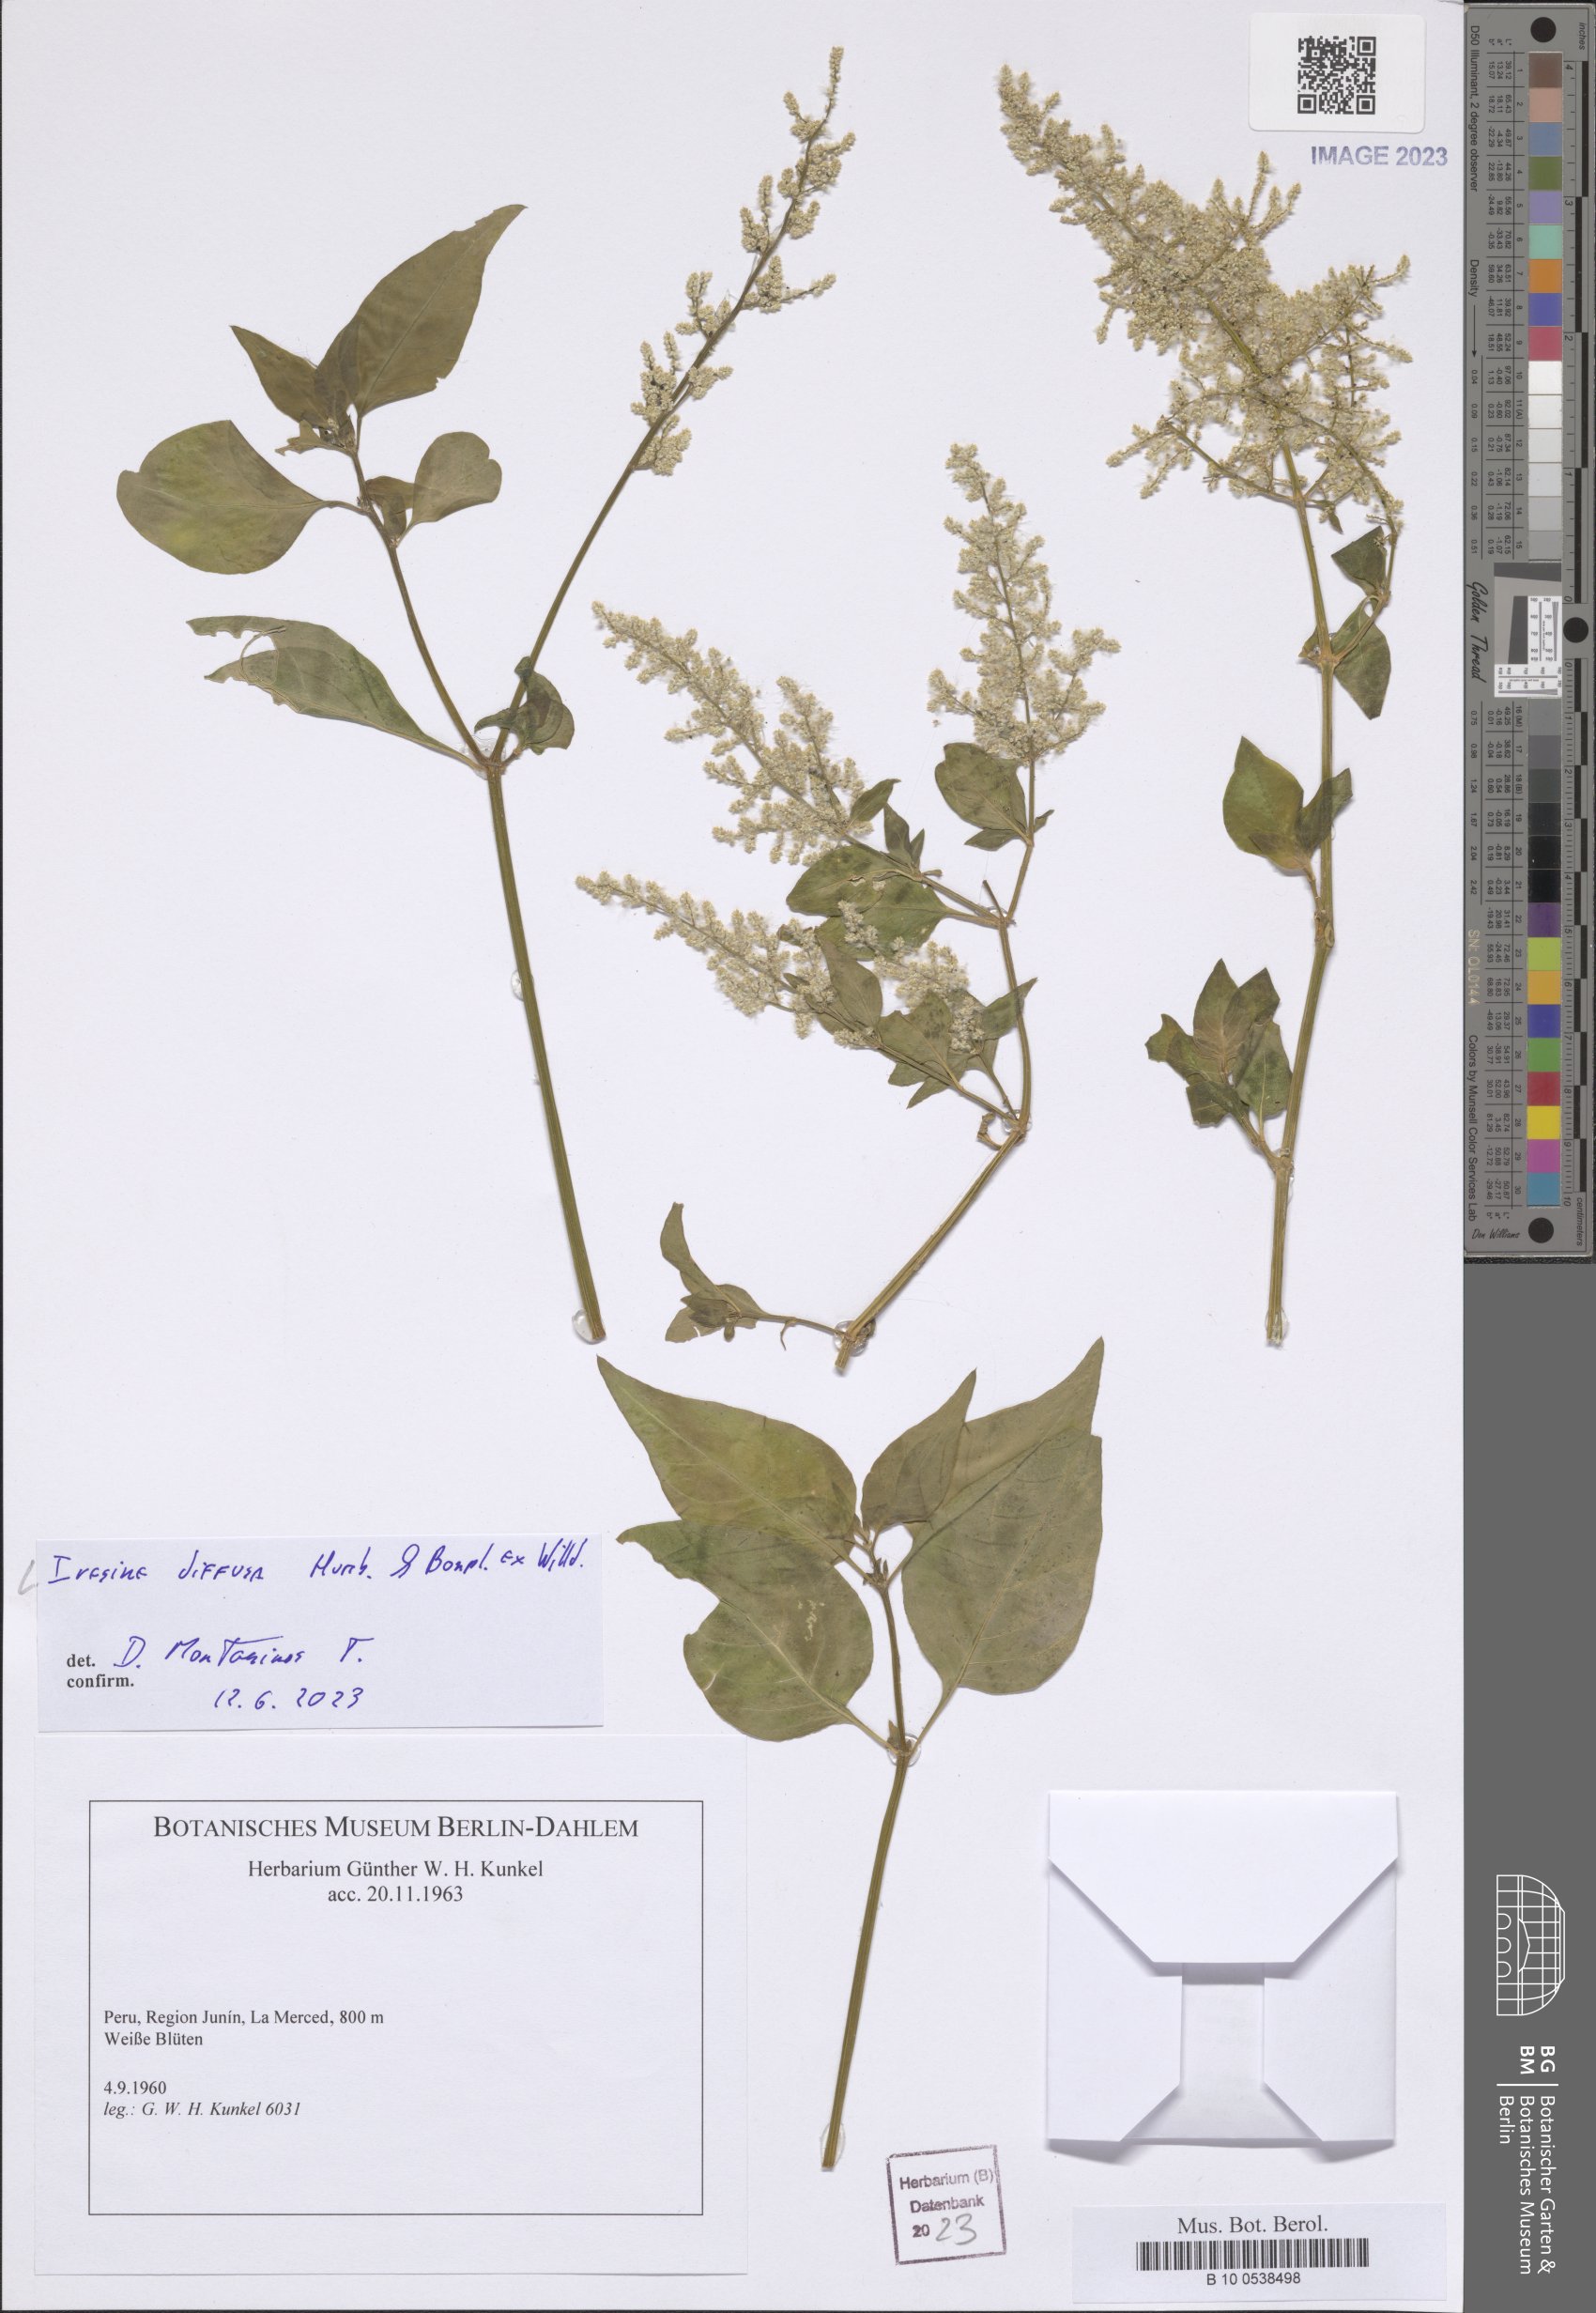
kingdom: Plantae
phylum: Tracheophyta
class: Magnoliopsida
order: Caryophyllales
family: Amaranthaceae
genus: Iresine
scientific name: Iresine diffusa
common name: Juba's-bush
